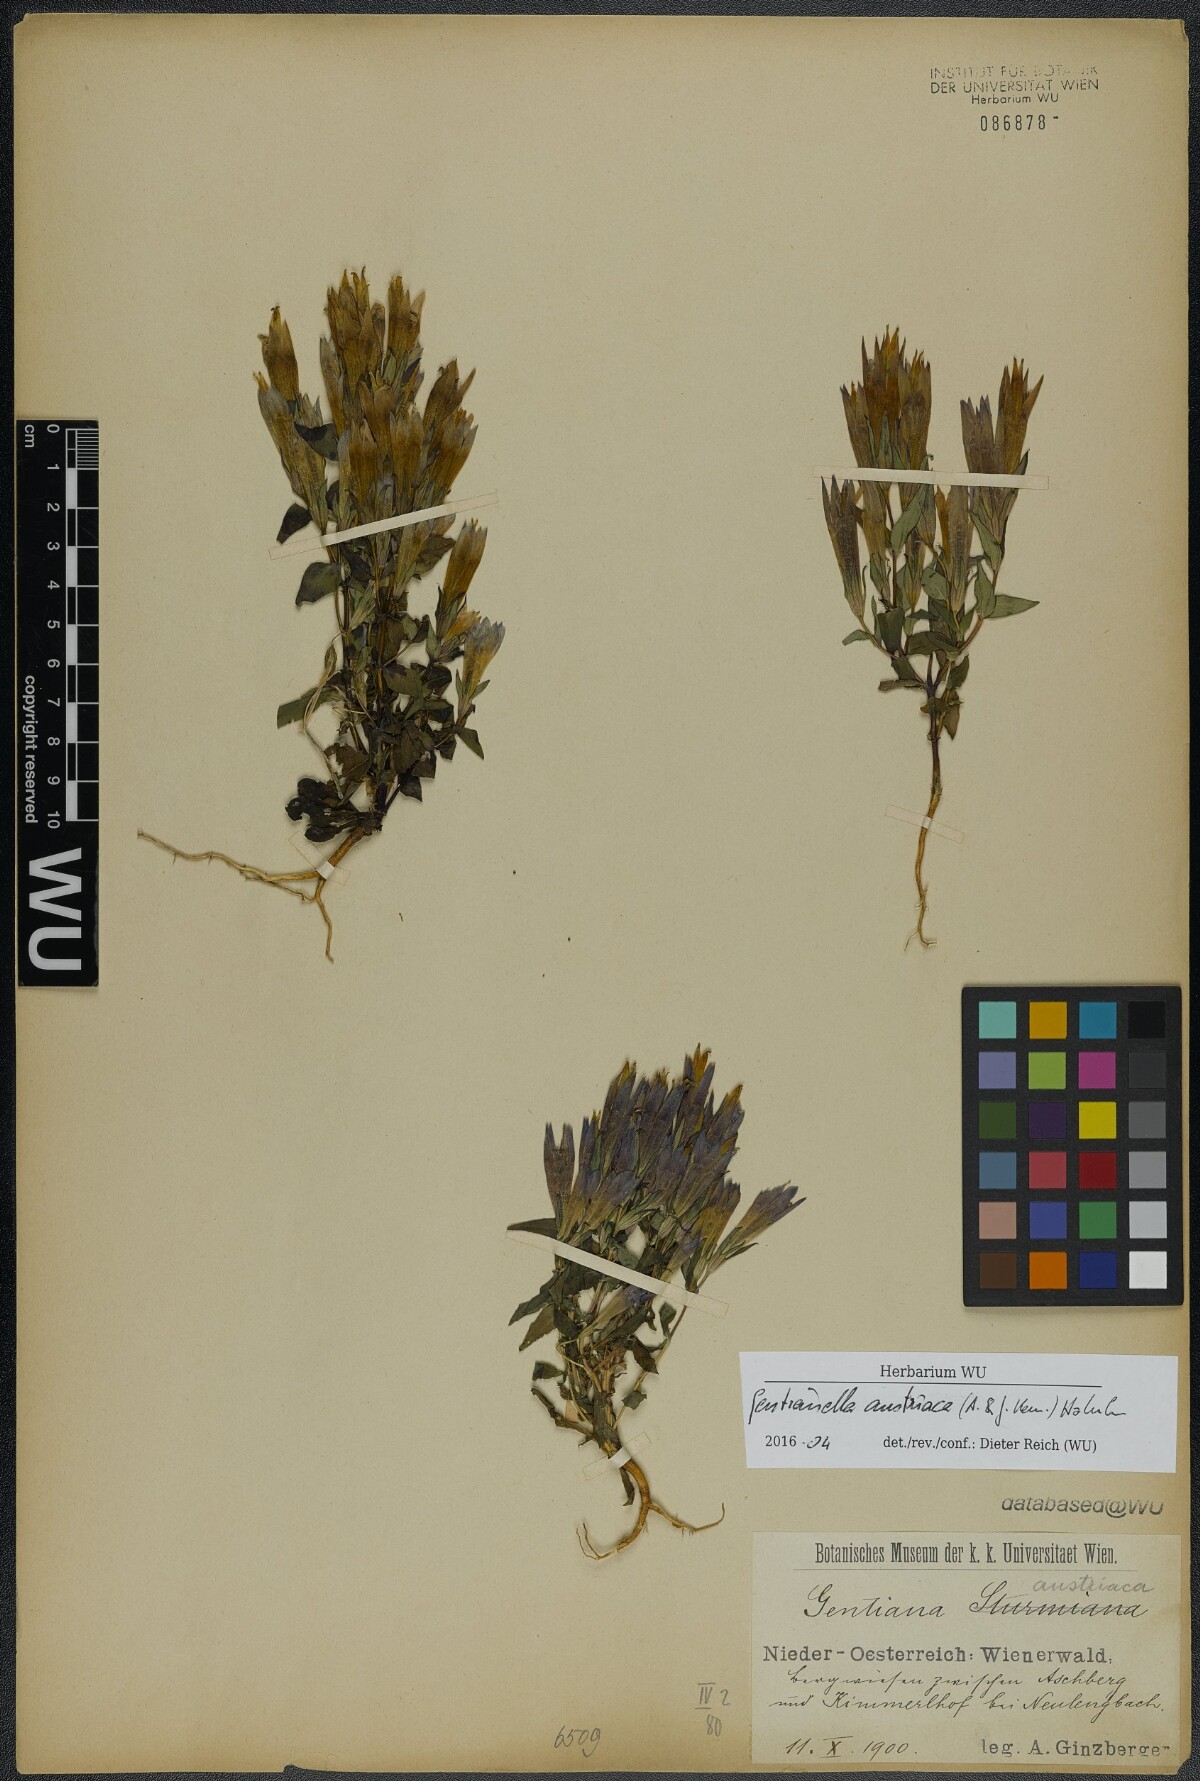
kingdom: Plantae
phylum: Tracheophyta
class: Magnoliopsida
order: Gentianales
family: Gentianaceae
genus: Gentianella
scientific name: Gentianella austriaca
